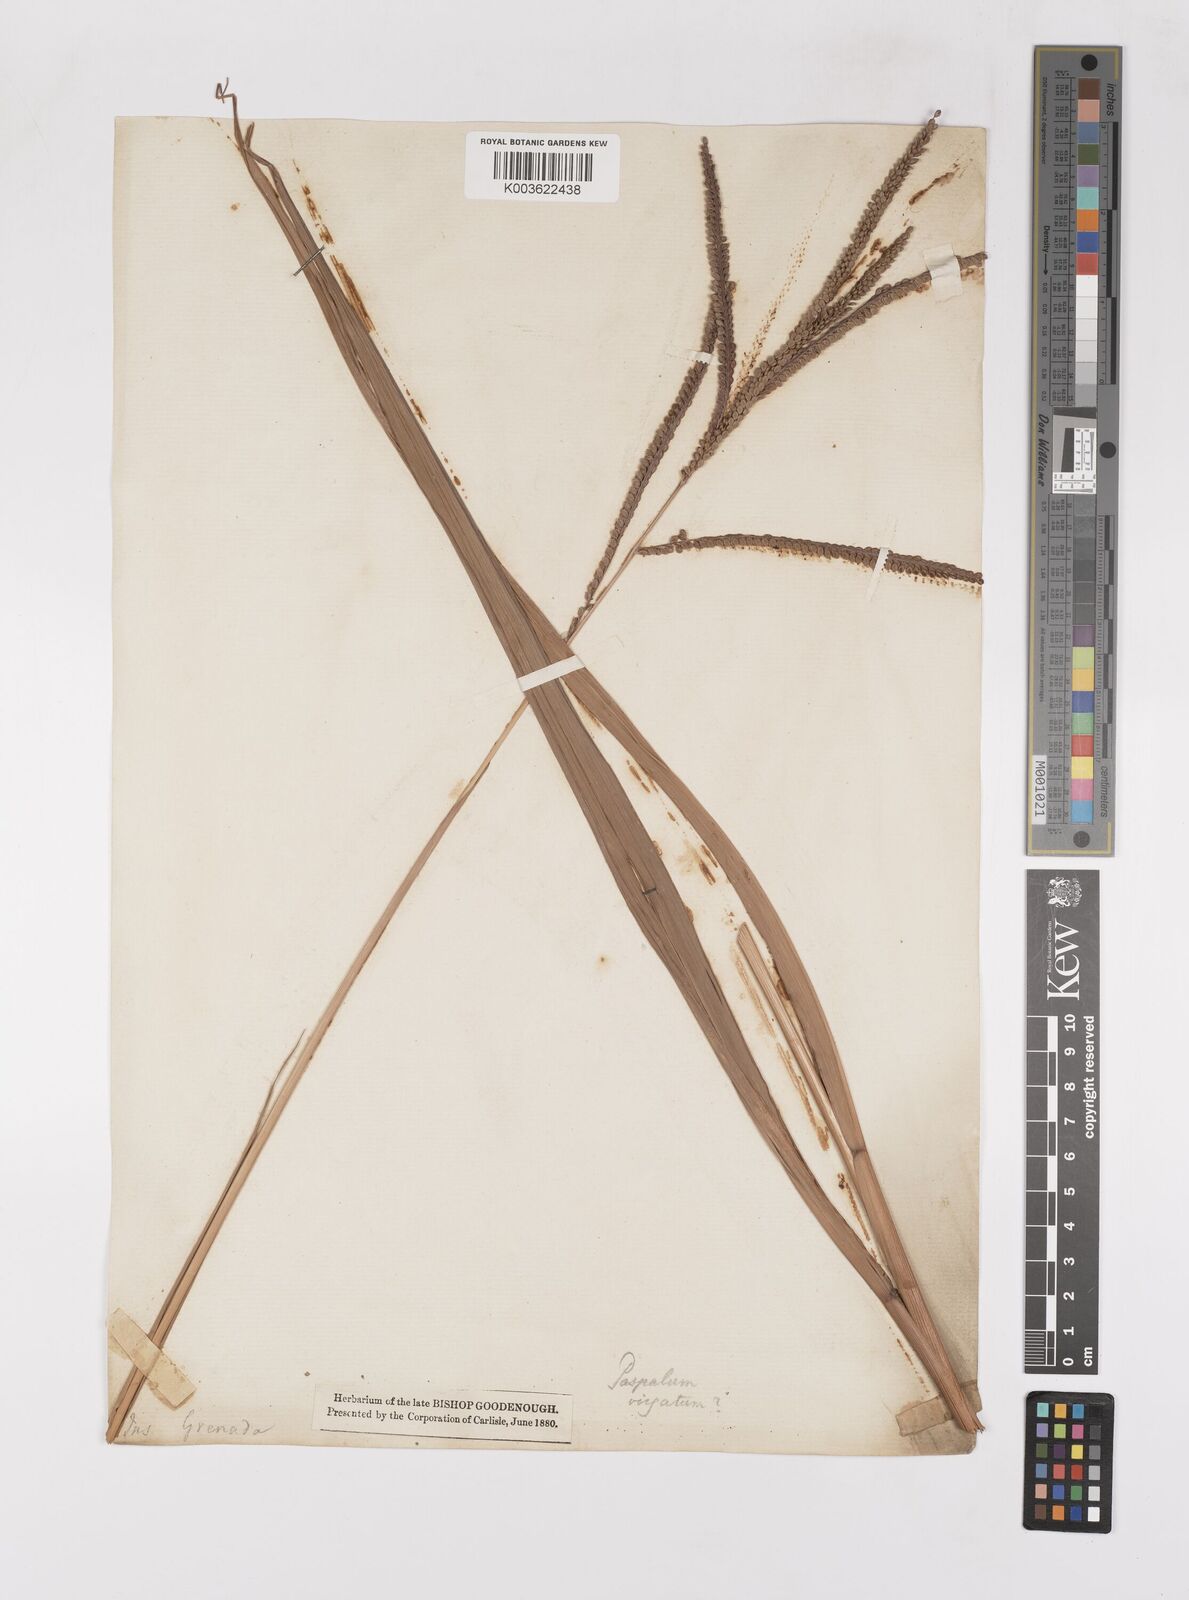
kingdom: Plantae
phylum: Tracheophyta
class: Liliopsida
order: Poales
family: Poaceae
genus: Paspalum
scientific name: Paspalum virgatum
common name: Talquezal
